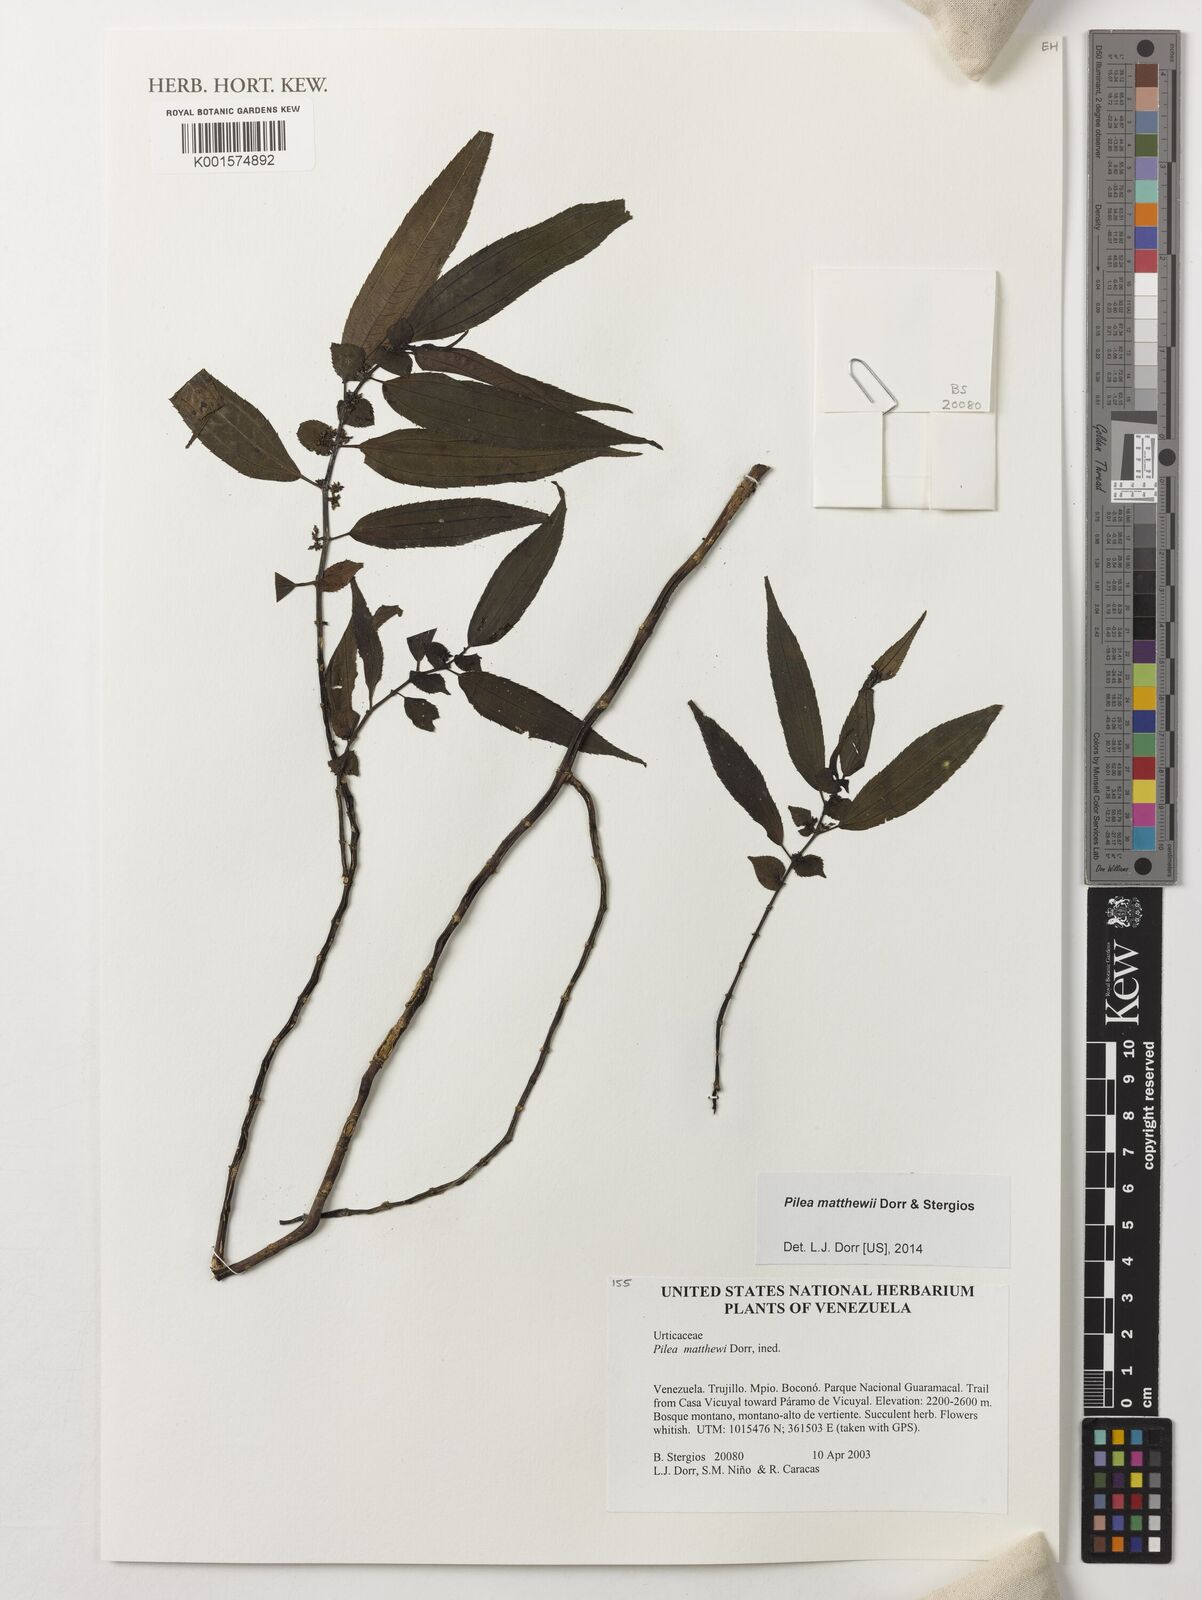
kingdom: Plantae
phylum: Tracheophyta
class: Magnoliopsida
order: Rosales
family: Urticaceae
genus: Pilea
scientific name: Pilea matthewii
